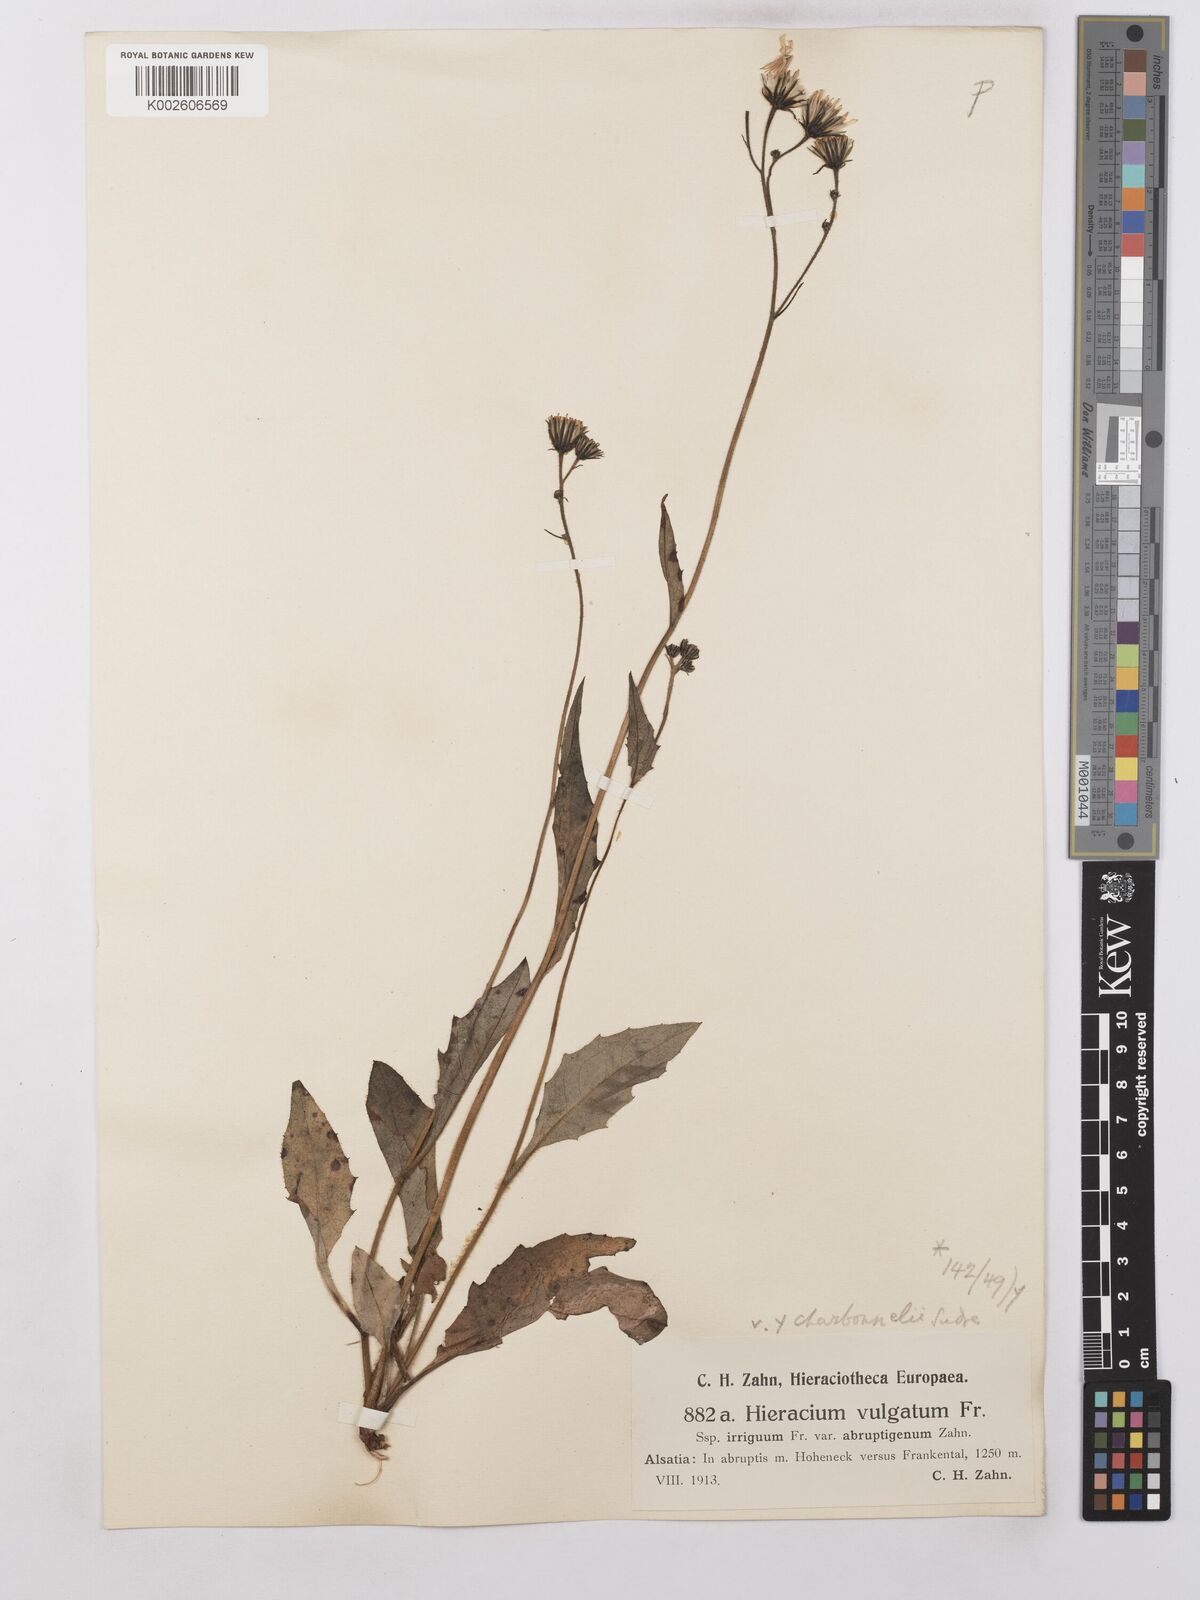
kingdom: Plantae
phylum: Tracheophyta
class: Magnoliopsida
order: Asterales
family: Asteraceae
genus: Hieracium
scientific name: Hieracium lachenalii
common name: Common hawkweed
